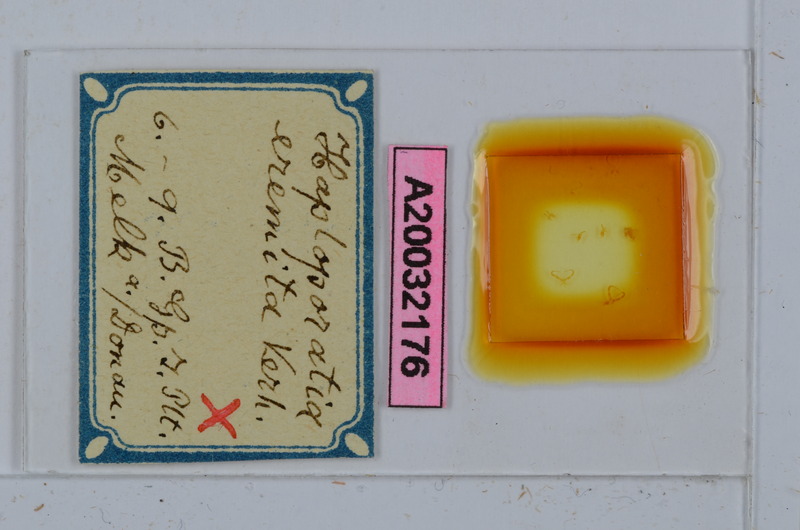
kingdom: Animalia
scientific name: Animalia
